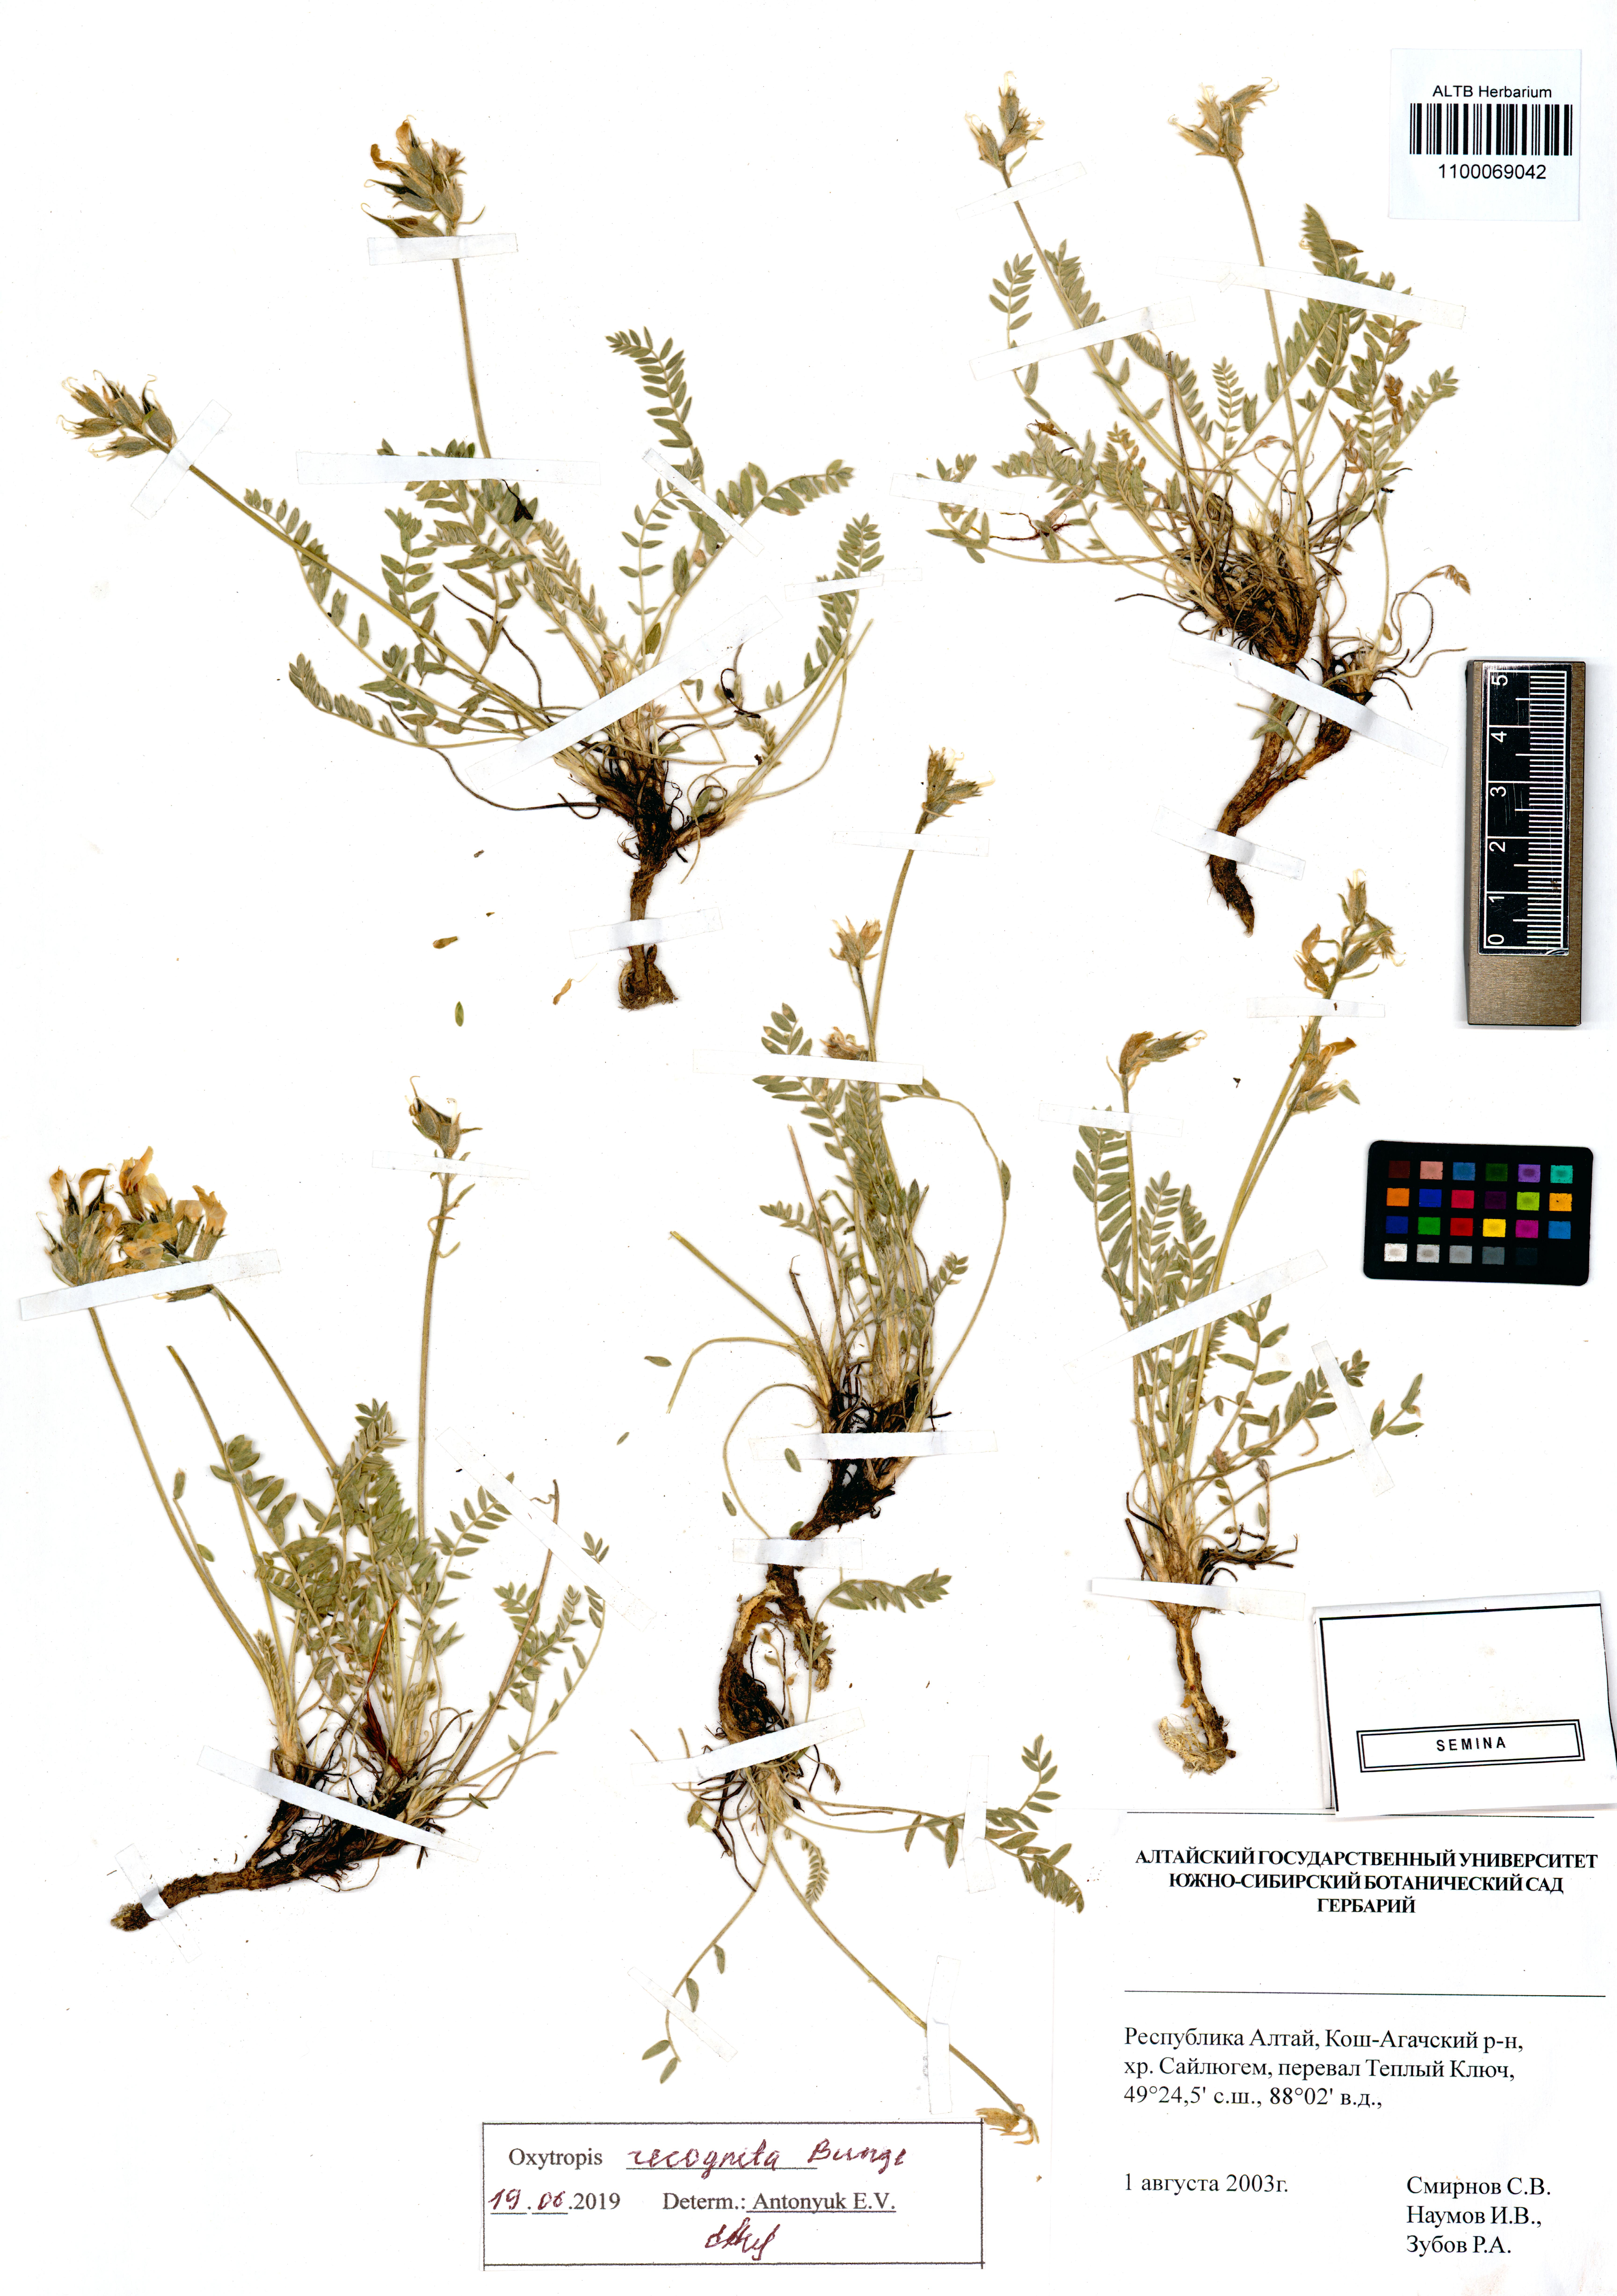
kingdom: Plantae
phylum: Tracheophyta
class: Magnoliopsida
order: Fabales
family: Fabaceae
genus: Oxytropis
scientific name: Oxytropis recognita
